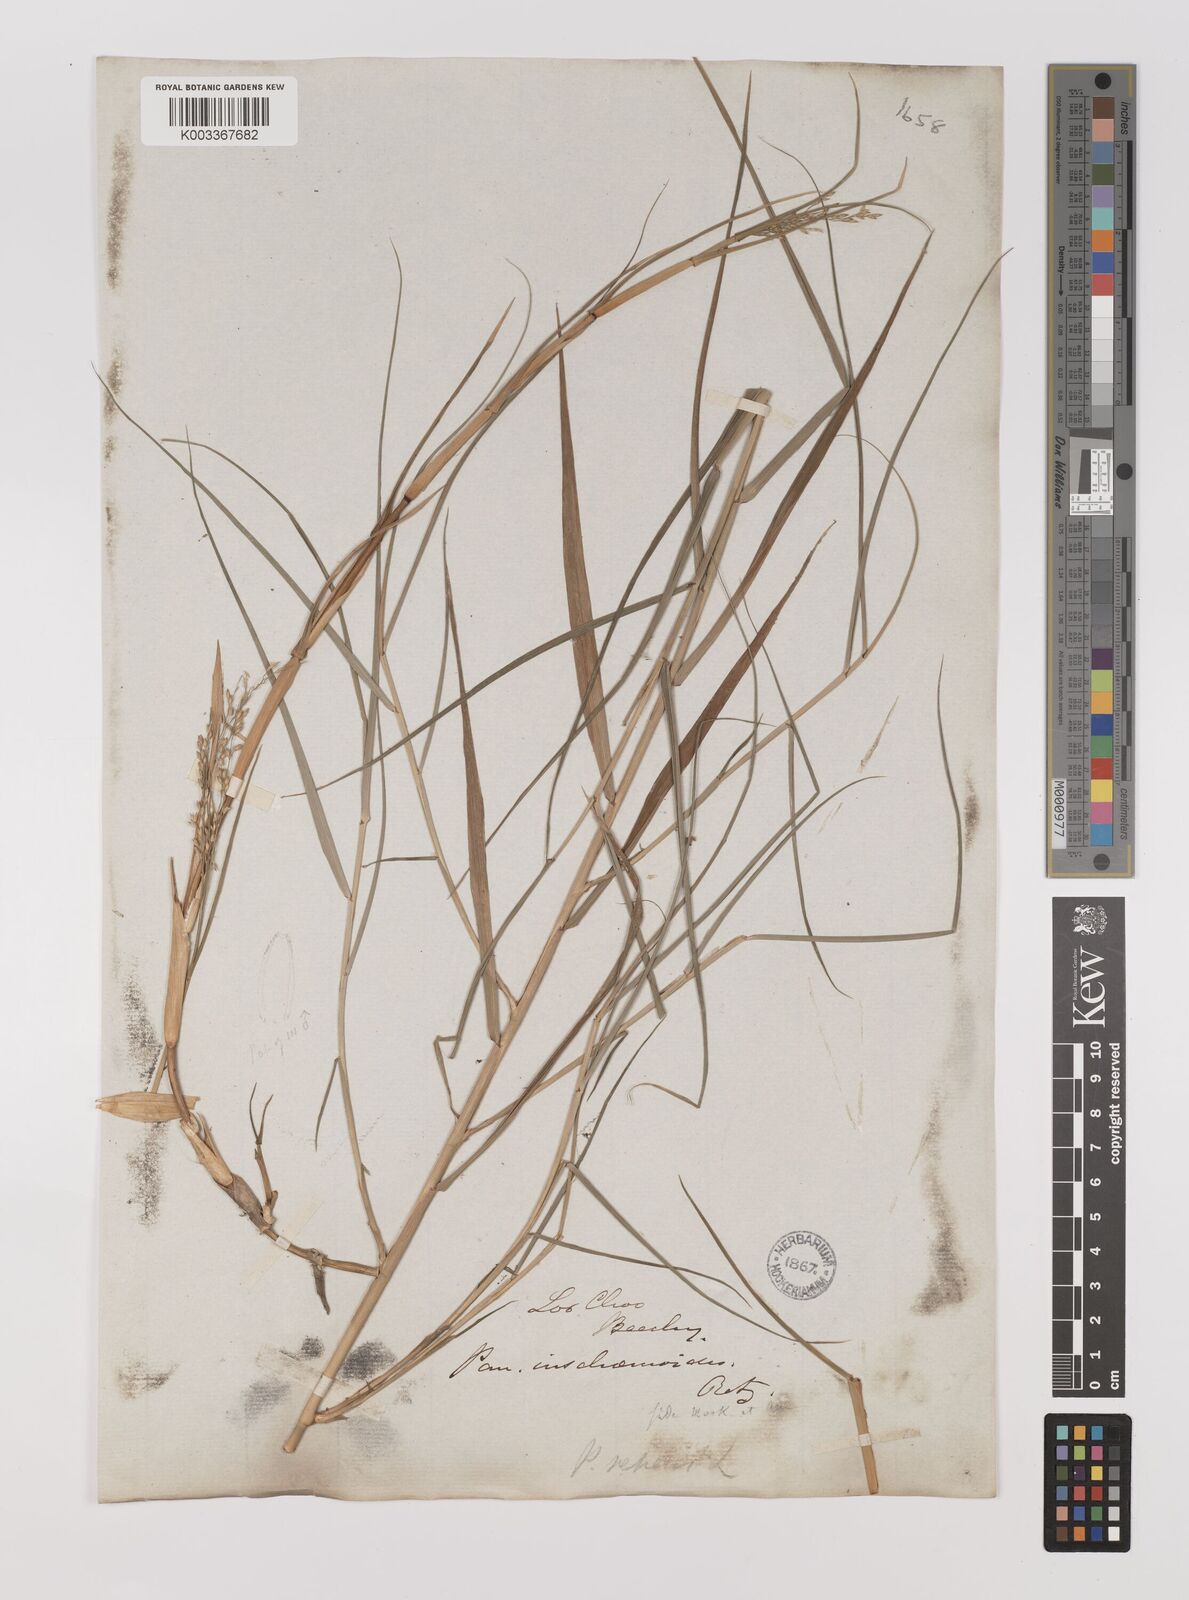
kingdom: Plantae
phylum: Tracheophyta
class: Liliopsida
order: Poales
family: Poaceae
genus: Panicum
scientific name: Panicum repens
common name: Torpedo grass
